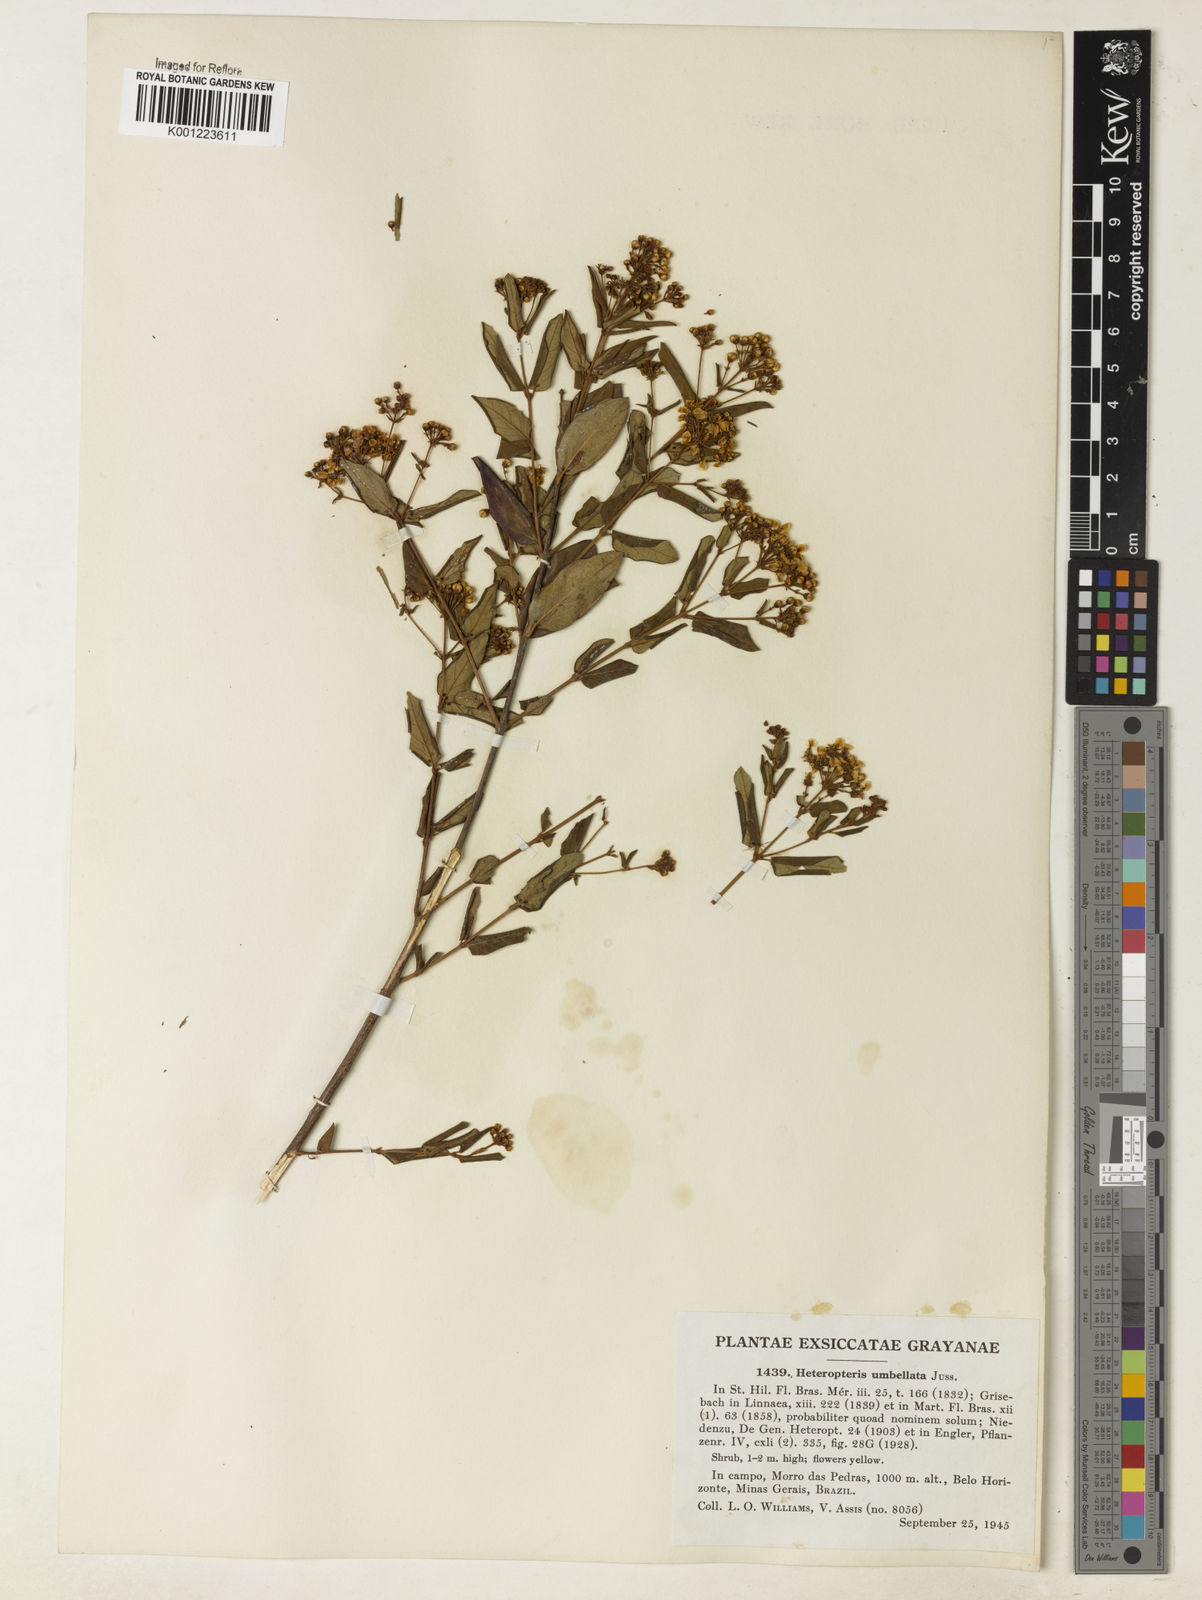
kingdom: Plantae
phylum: Tracheophyta
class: Magnoliopsida
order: Malpighiales
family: Malpighiaceae
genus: Heteropterys
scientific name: Heteropterys umbellata
